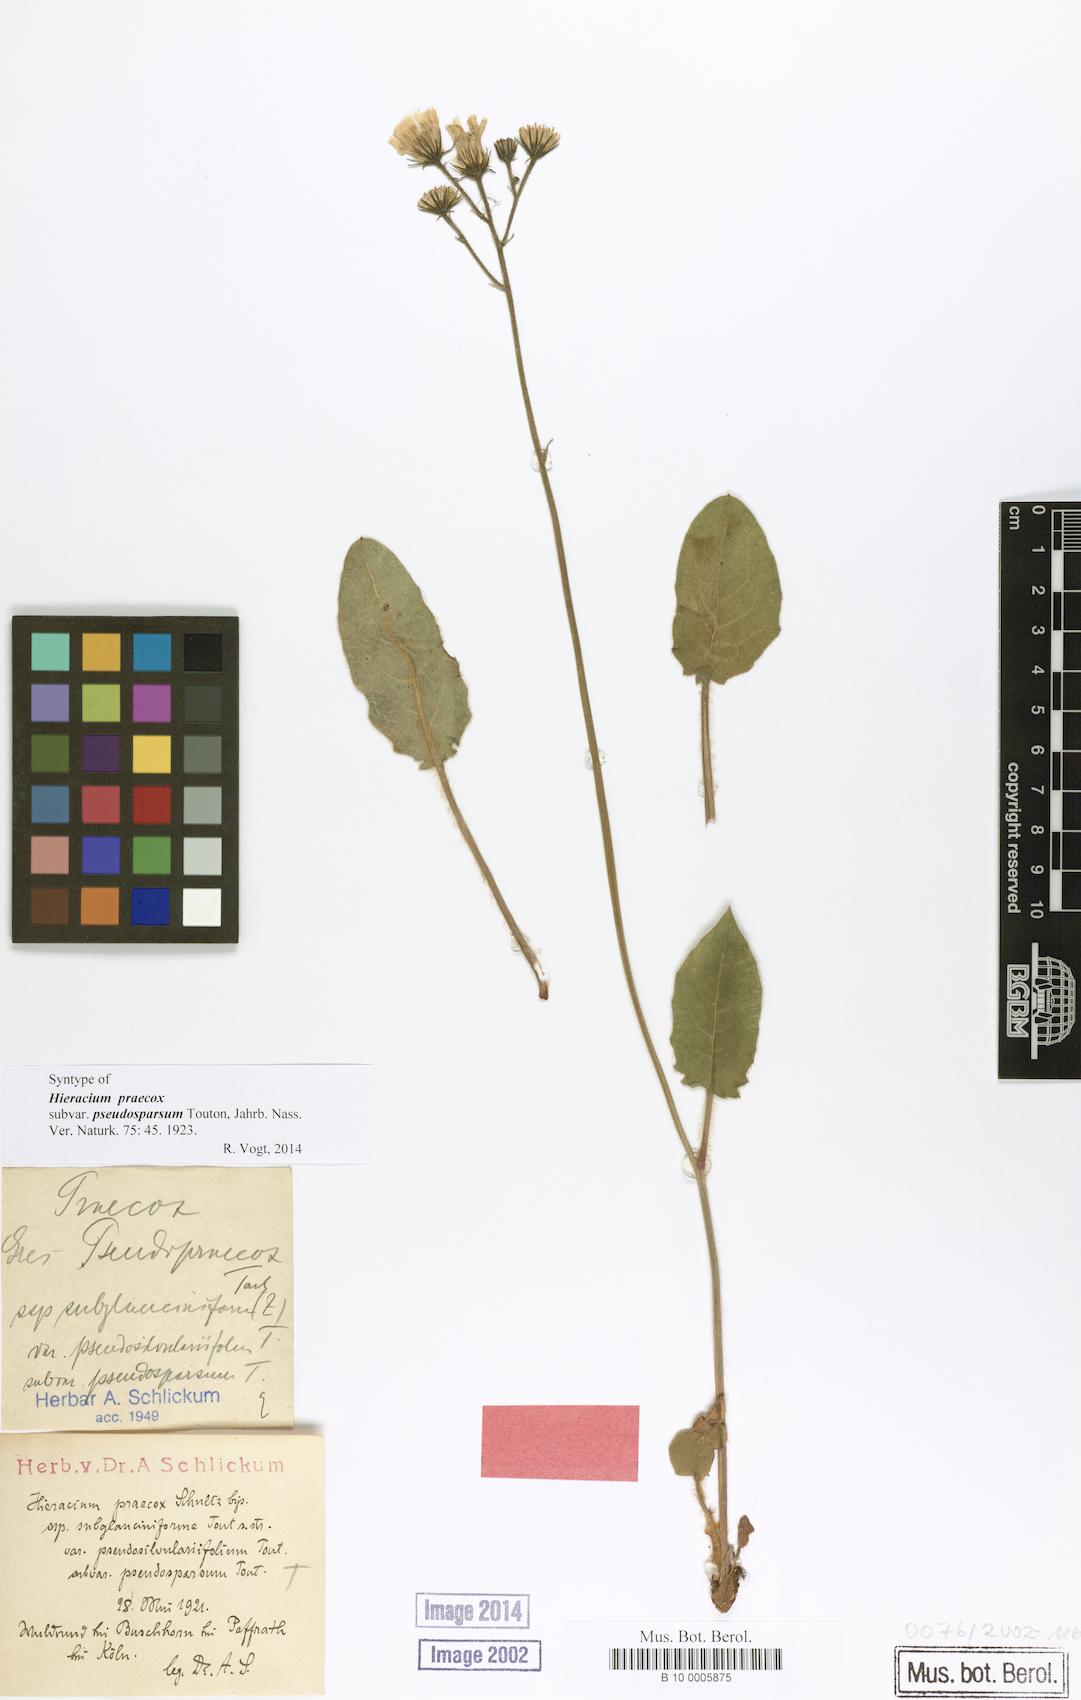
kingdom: Plantae
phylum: Tracheophyta
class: Magnoliopsida
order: Asterales
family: Asteraceae
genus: Hieracium
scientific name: Hieracium praecox
